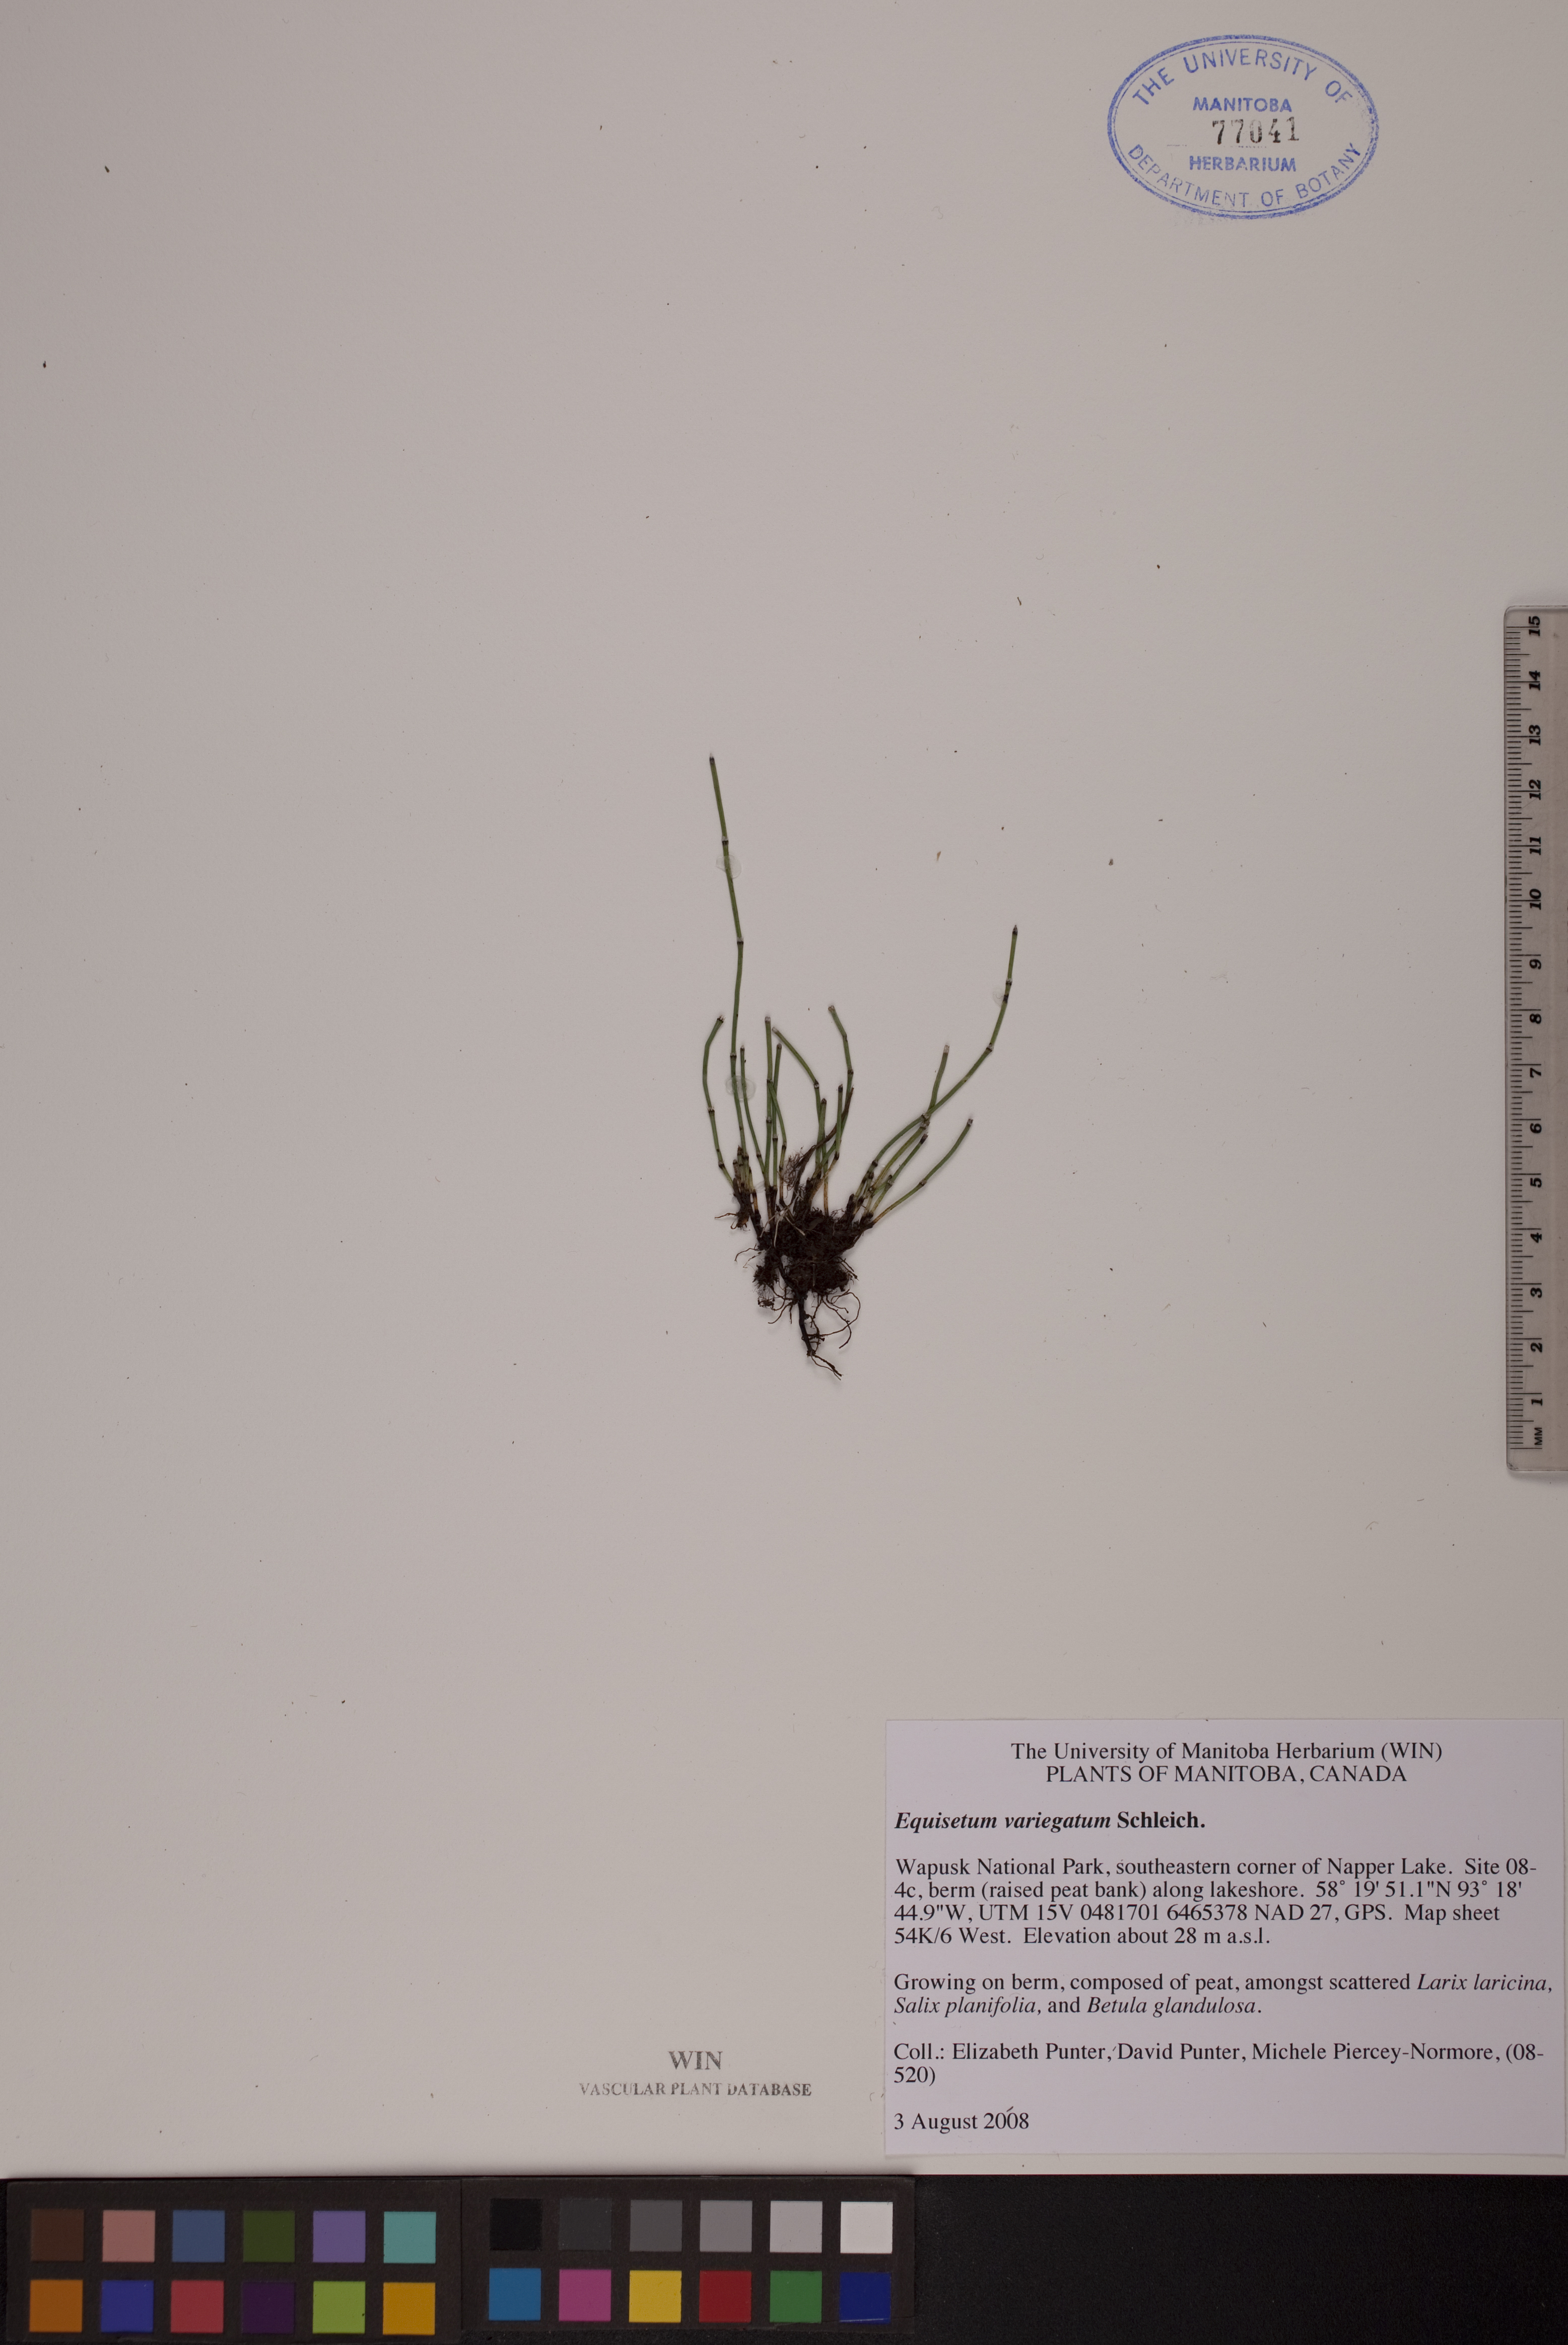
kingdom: Plantae
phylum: Tracheophyta
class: Polypodiopsida
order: Equisetales
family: Equisetaceae
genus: Equisetum
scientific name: Equisetum variegatum
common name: Variegated horsetail
